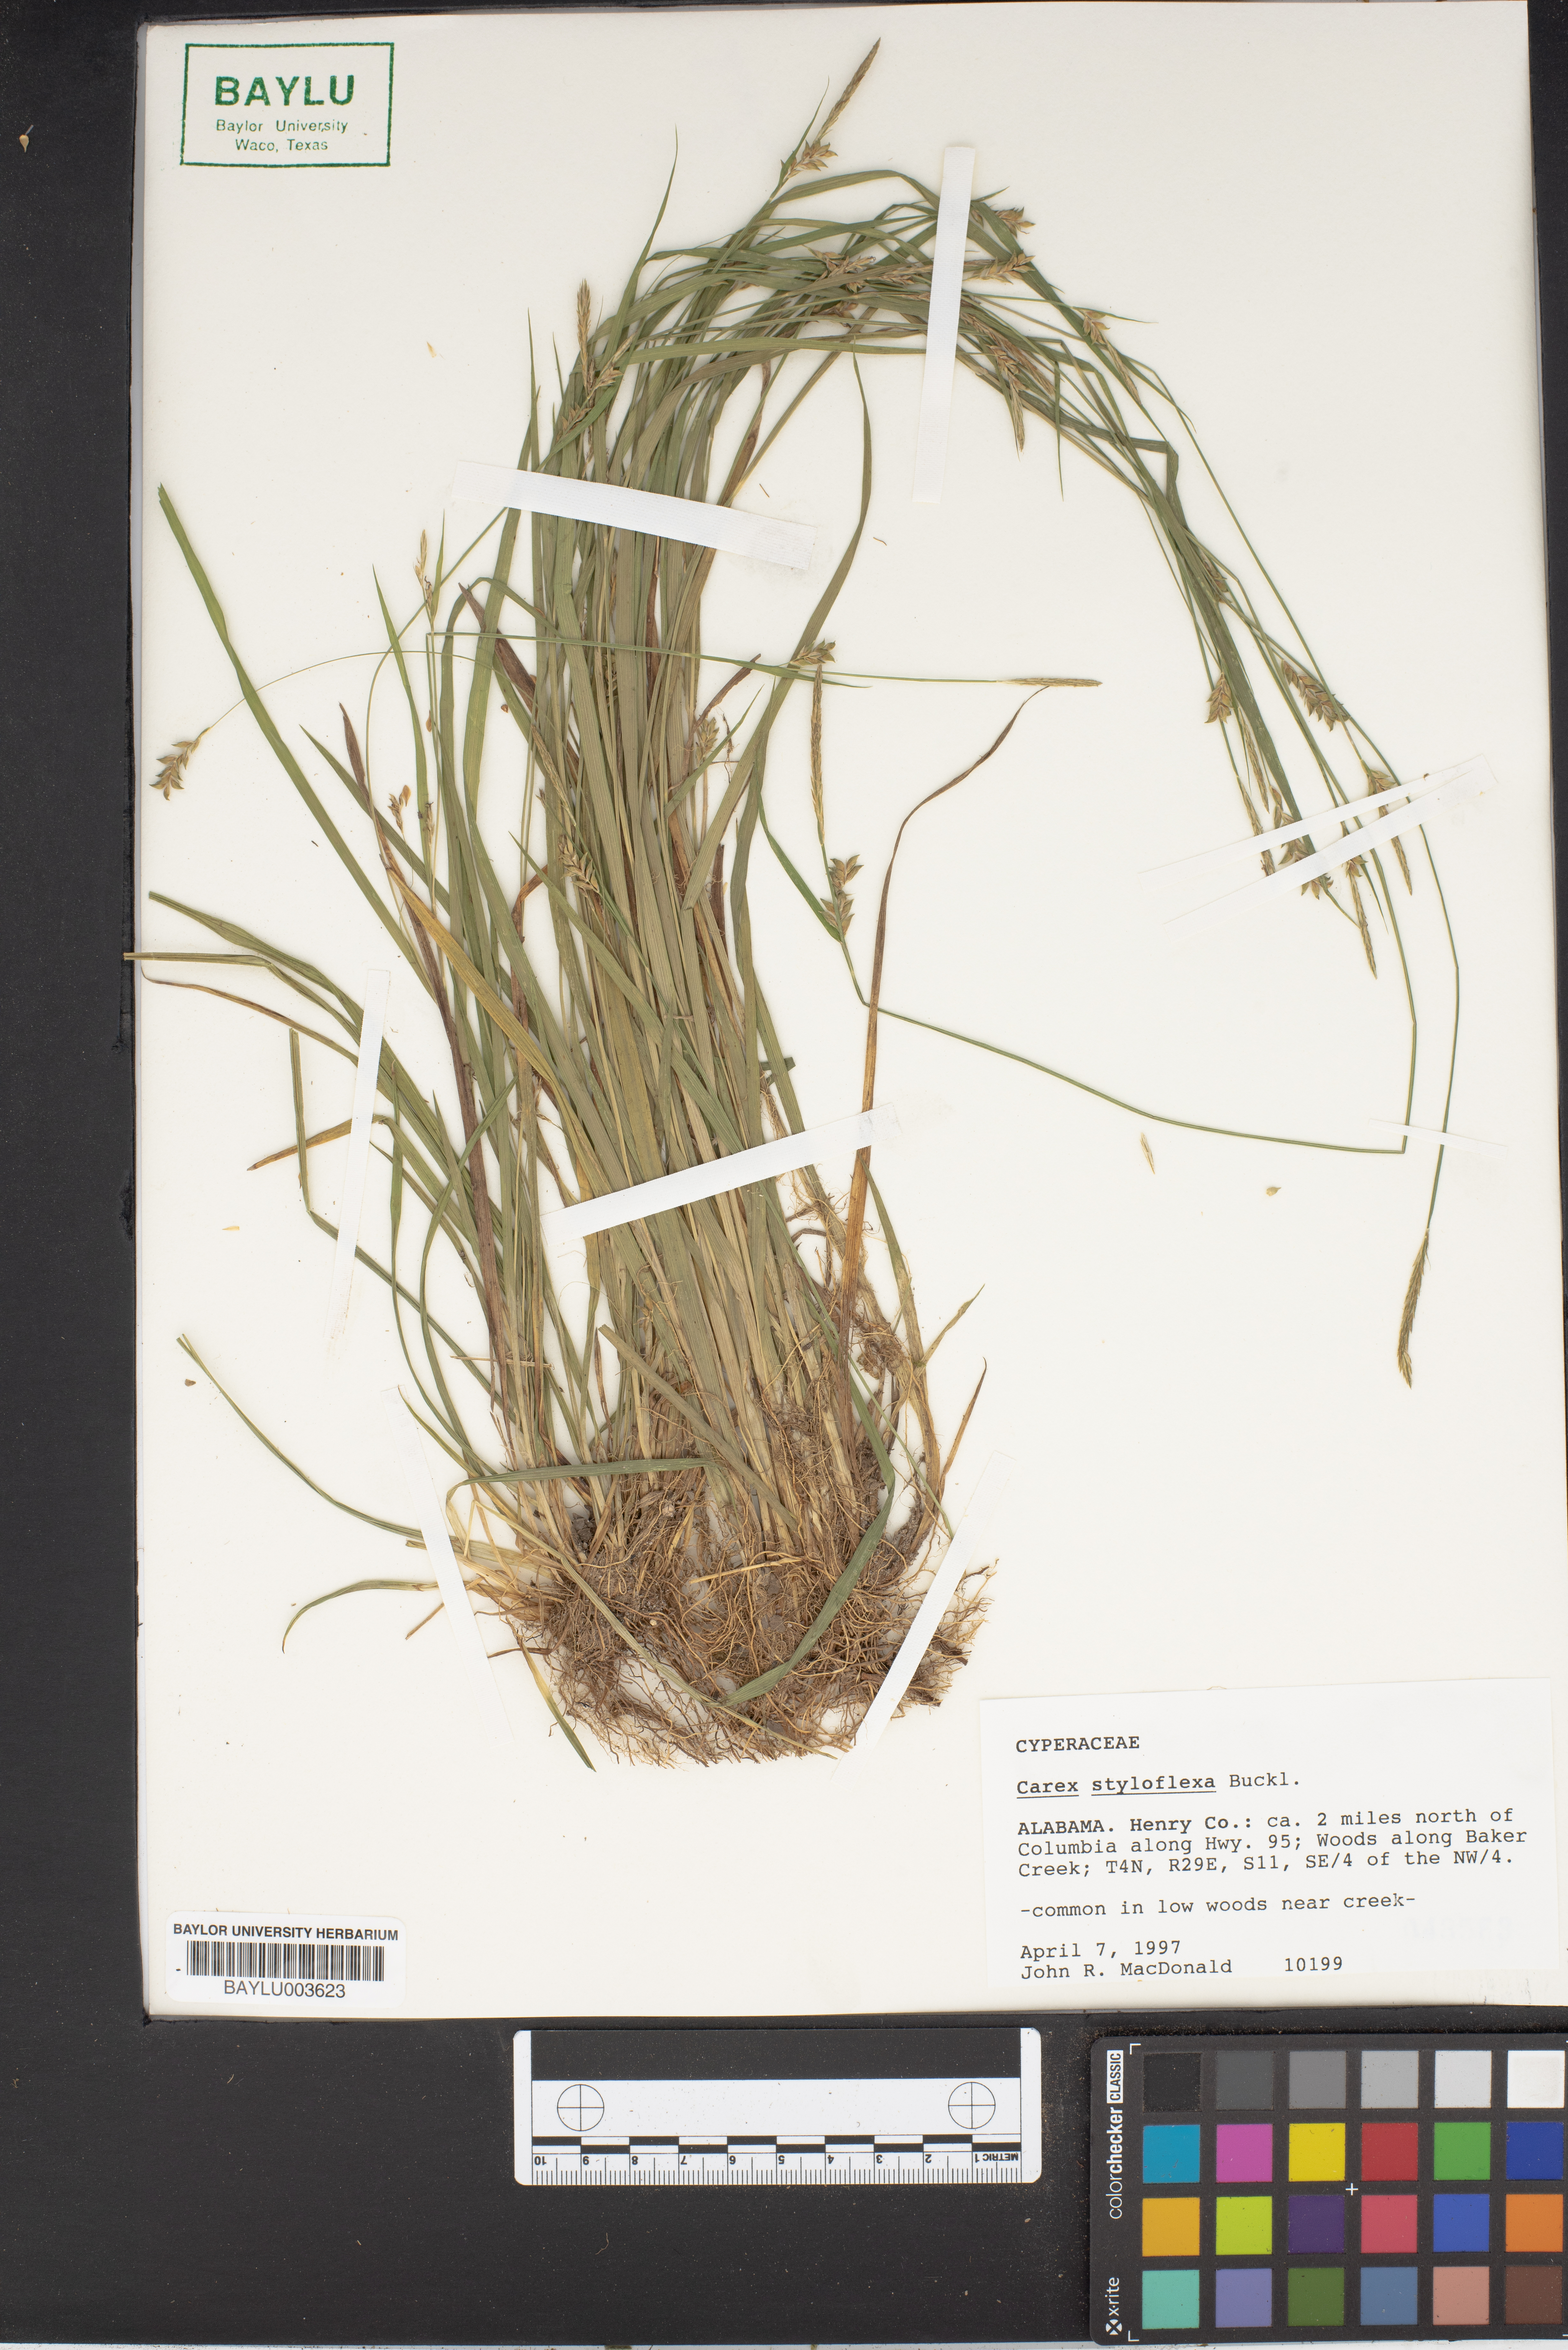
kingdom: Plantae
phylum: Tracheophyta
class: Liliopsida
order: Poales
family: Cyperaceae
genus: Carex
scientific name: Carex styloflexa
